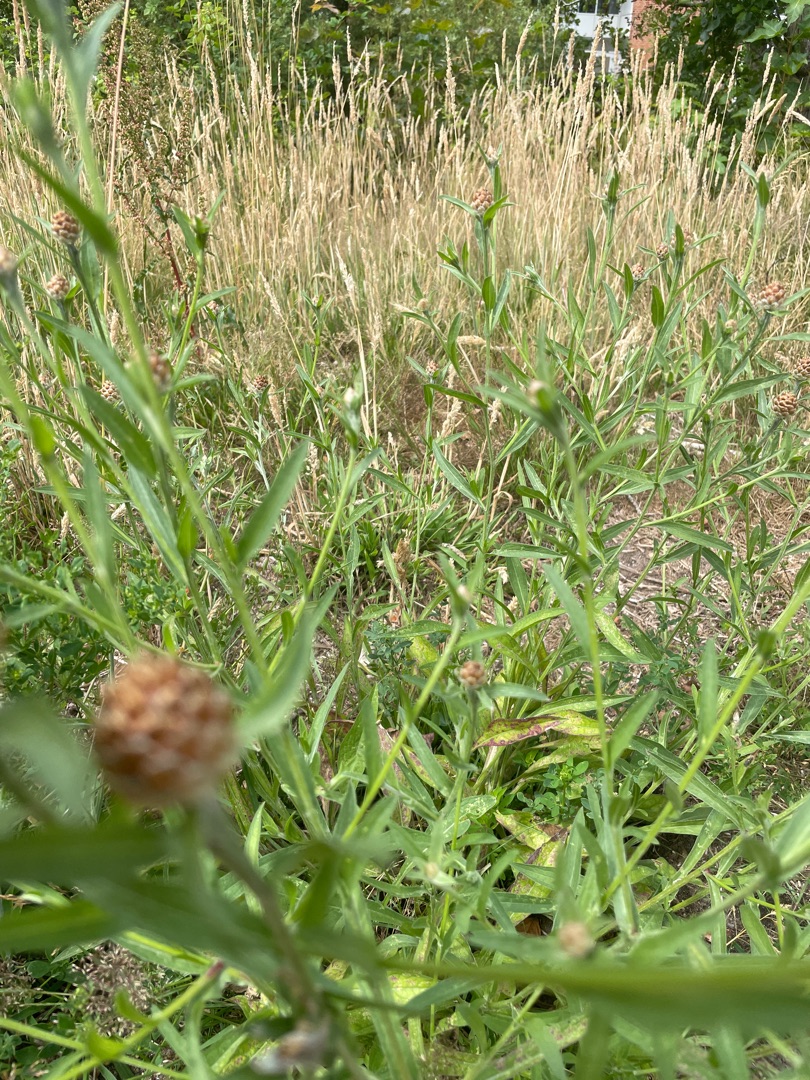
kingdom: Plantae
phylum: Tracheophyta
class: Magnoliopsida
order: Asterales
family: Asteraceae
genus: Centaurea
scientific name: Centaurea jacea
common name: Almindelig knopurt
